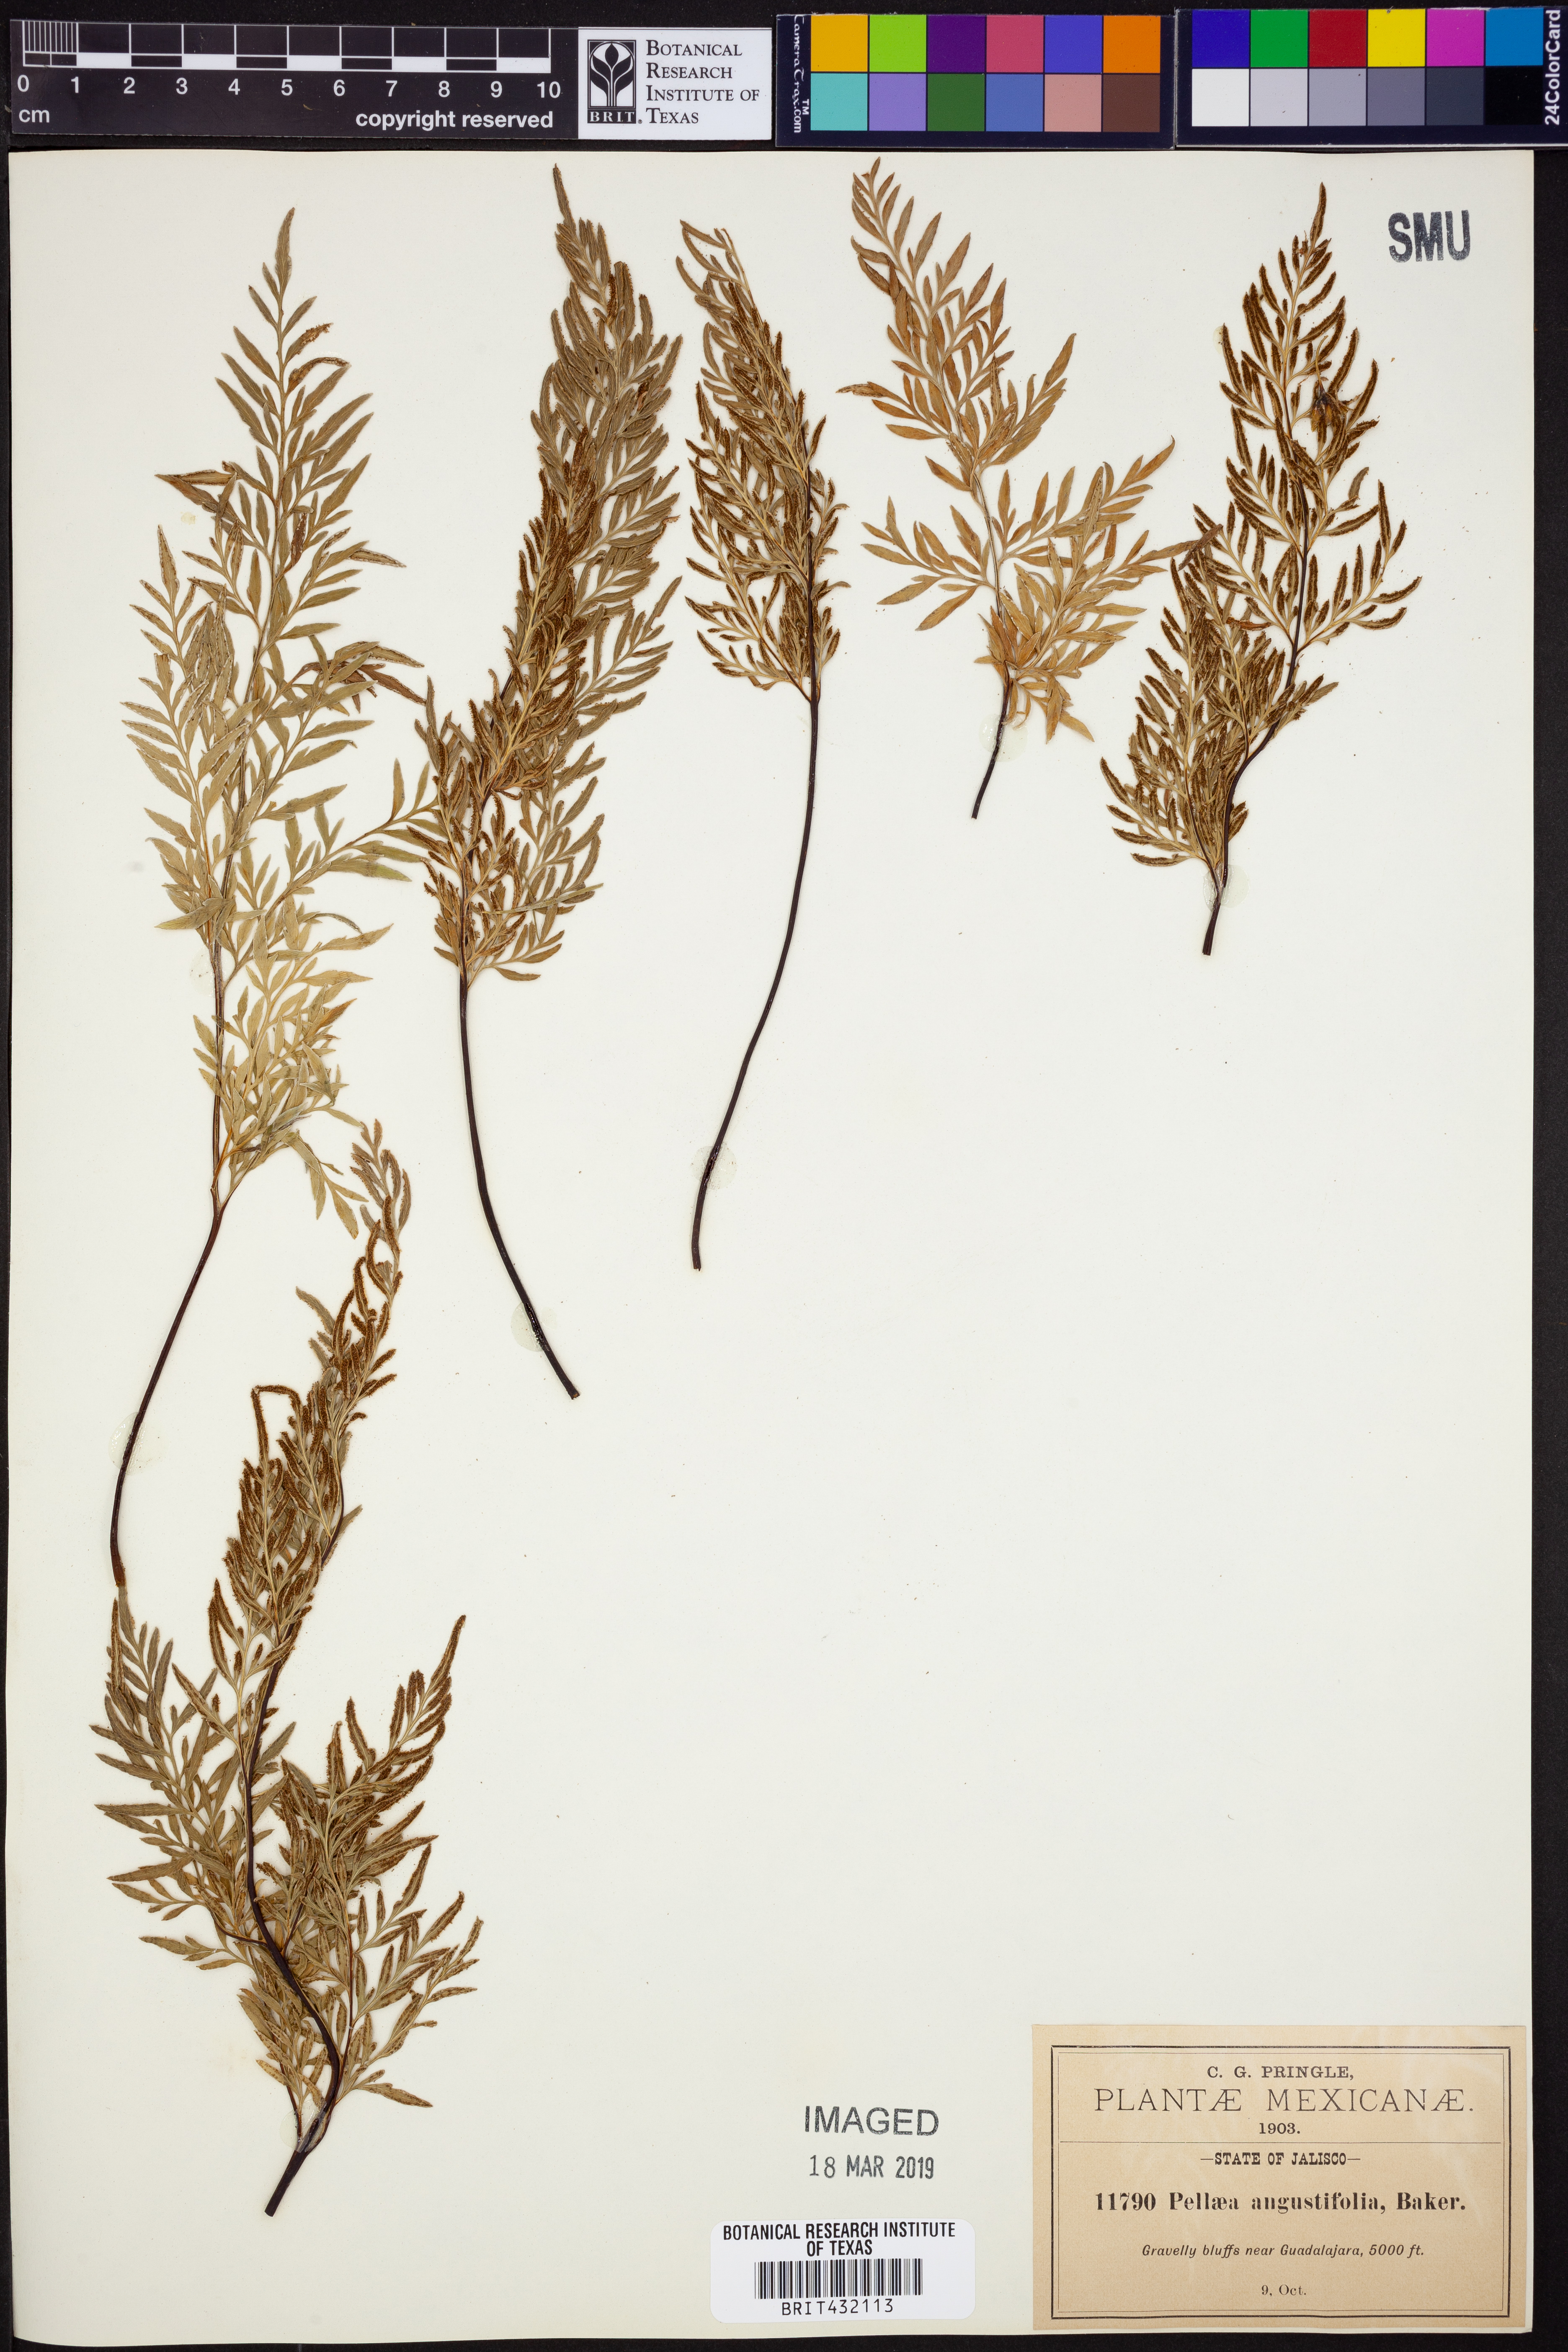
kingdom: Plantae
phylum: Tracheophyta
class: Polypodiopsida
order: Polypodiales
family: Pteridaceae
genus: Gaga
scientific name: Gaga angustifolia
